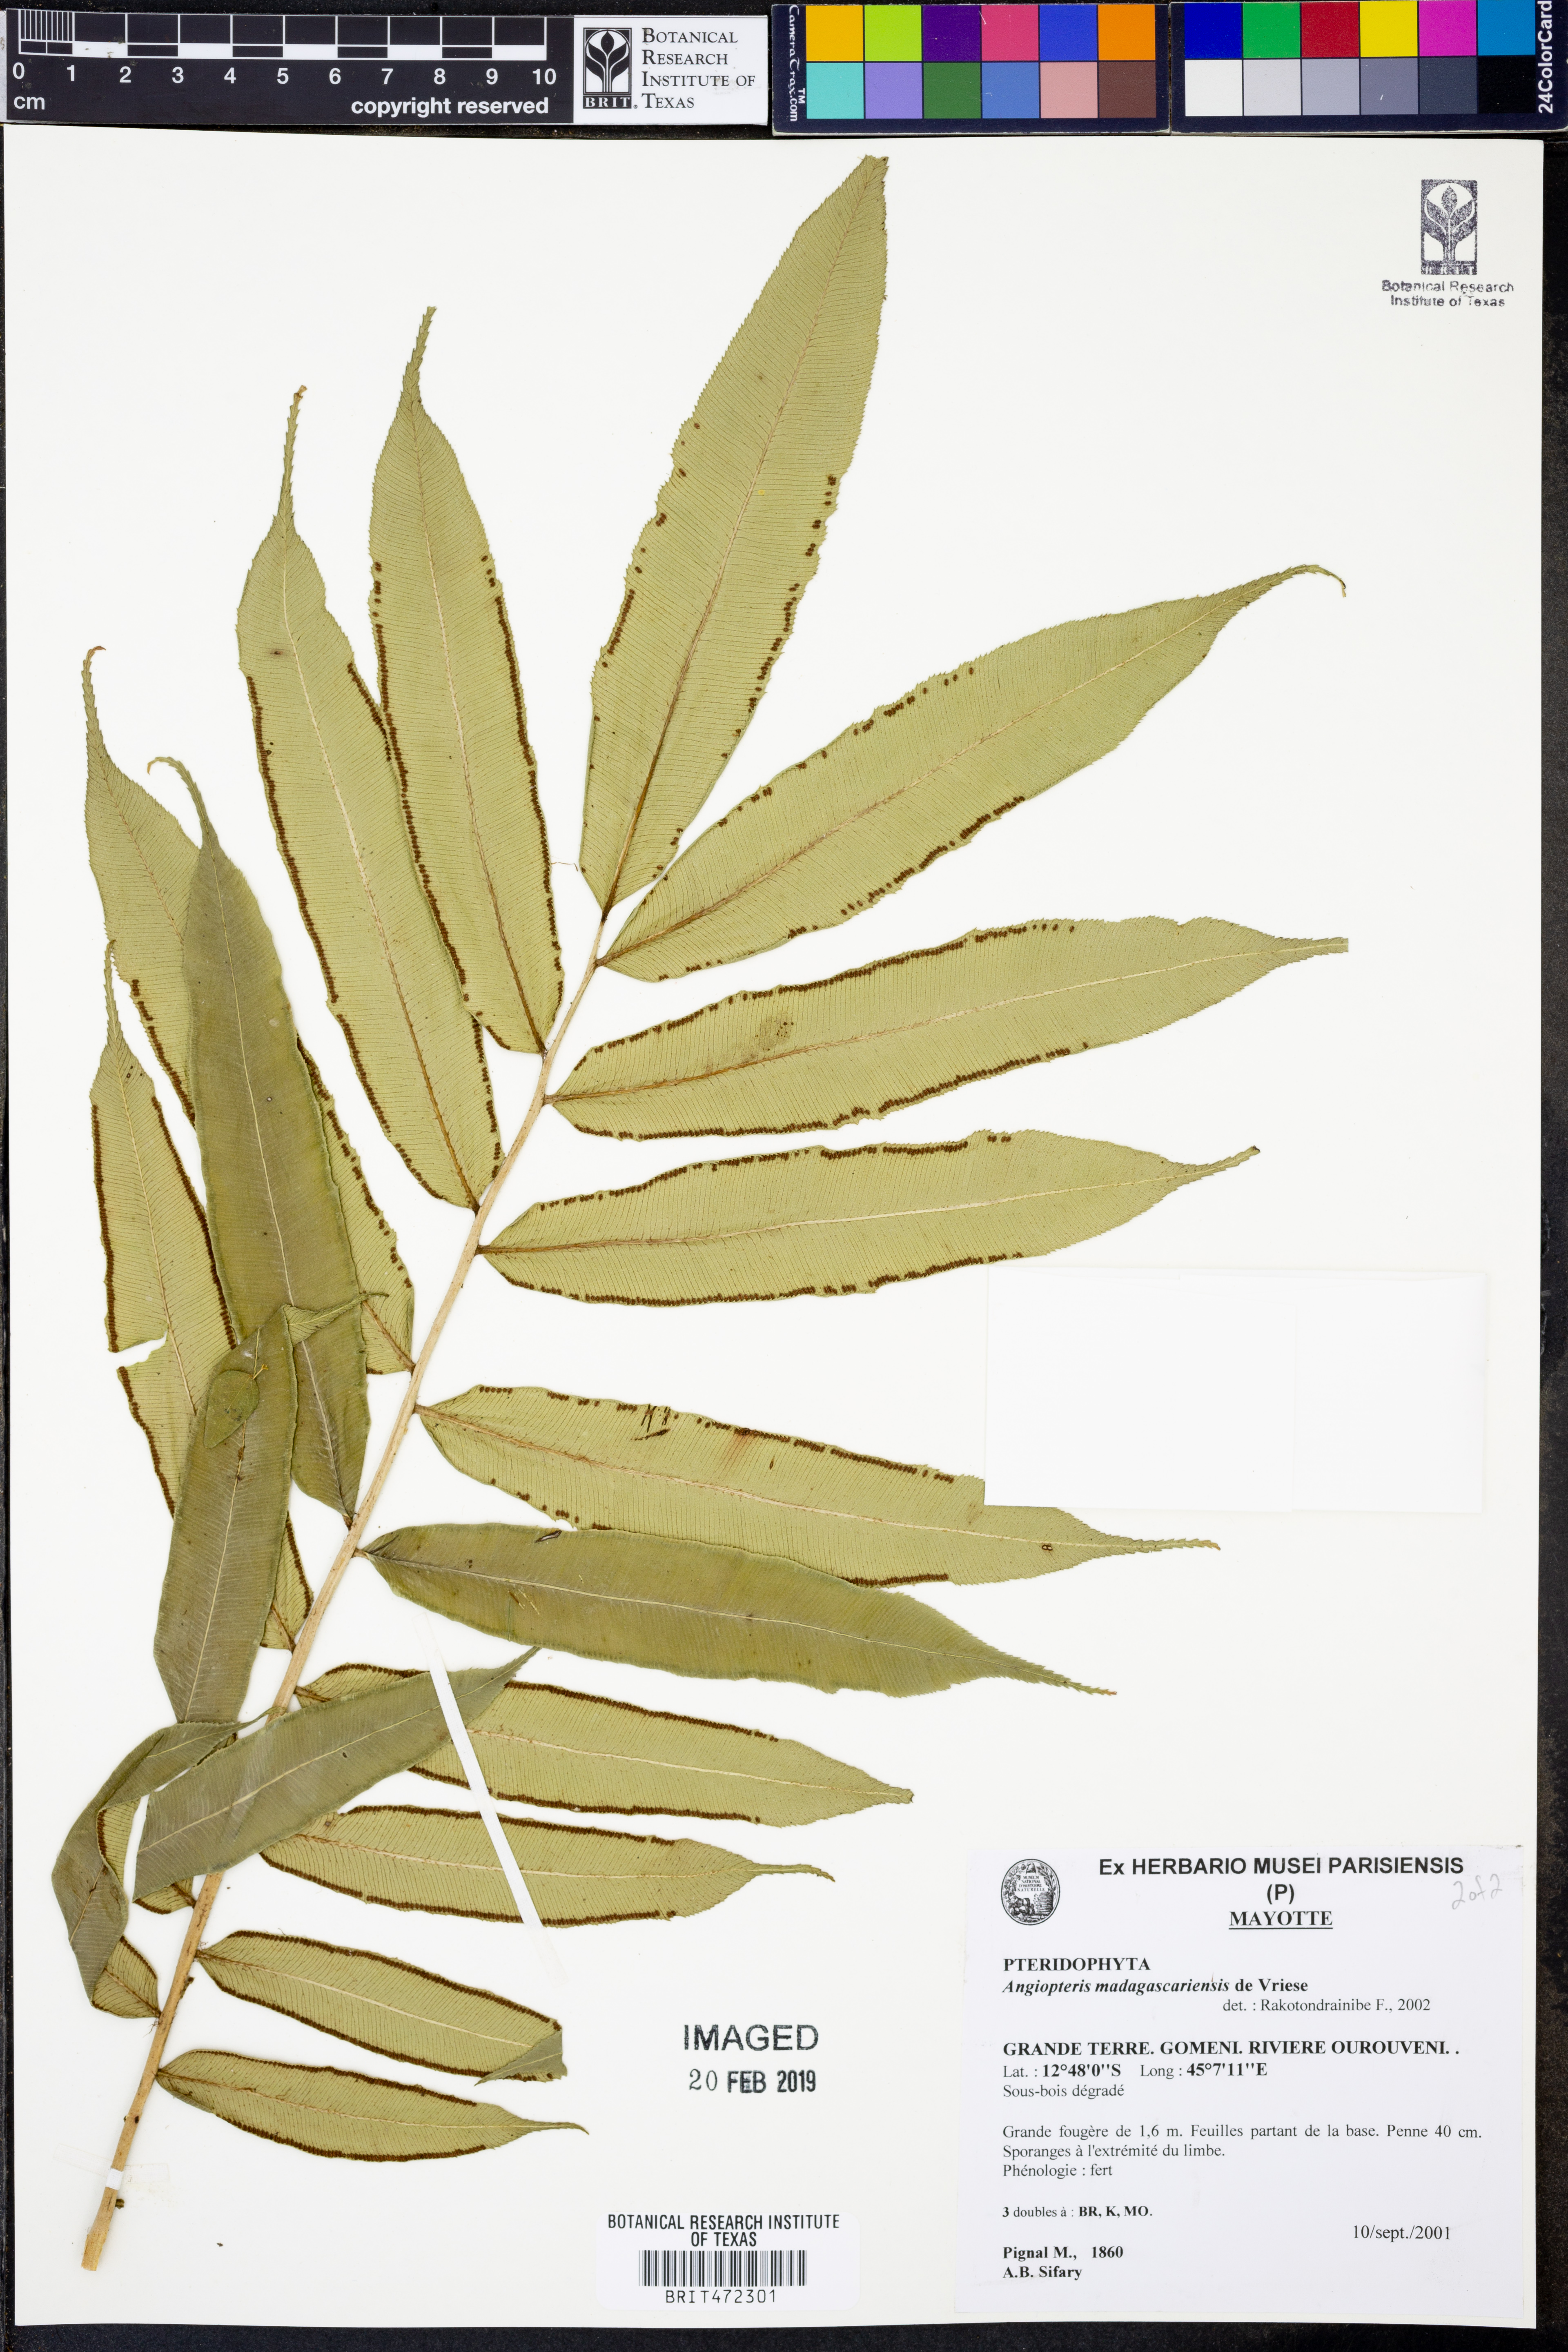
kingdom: Plantae
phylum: Tracheophyta
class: Polypodiopsida
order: Marattiales
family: Marattiaceae
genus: Angiopteris
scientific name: Angiopteris madagascariensis
